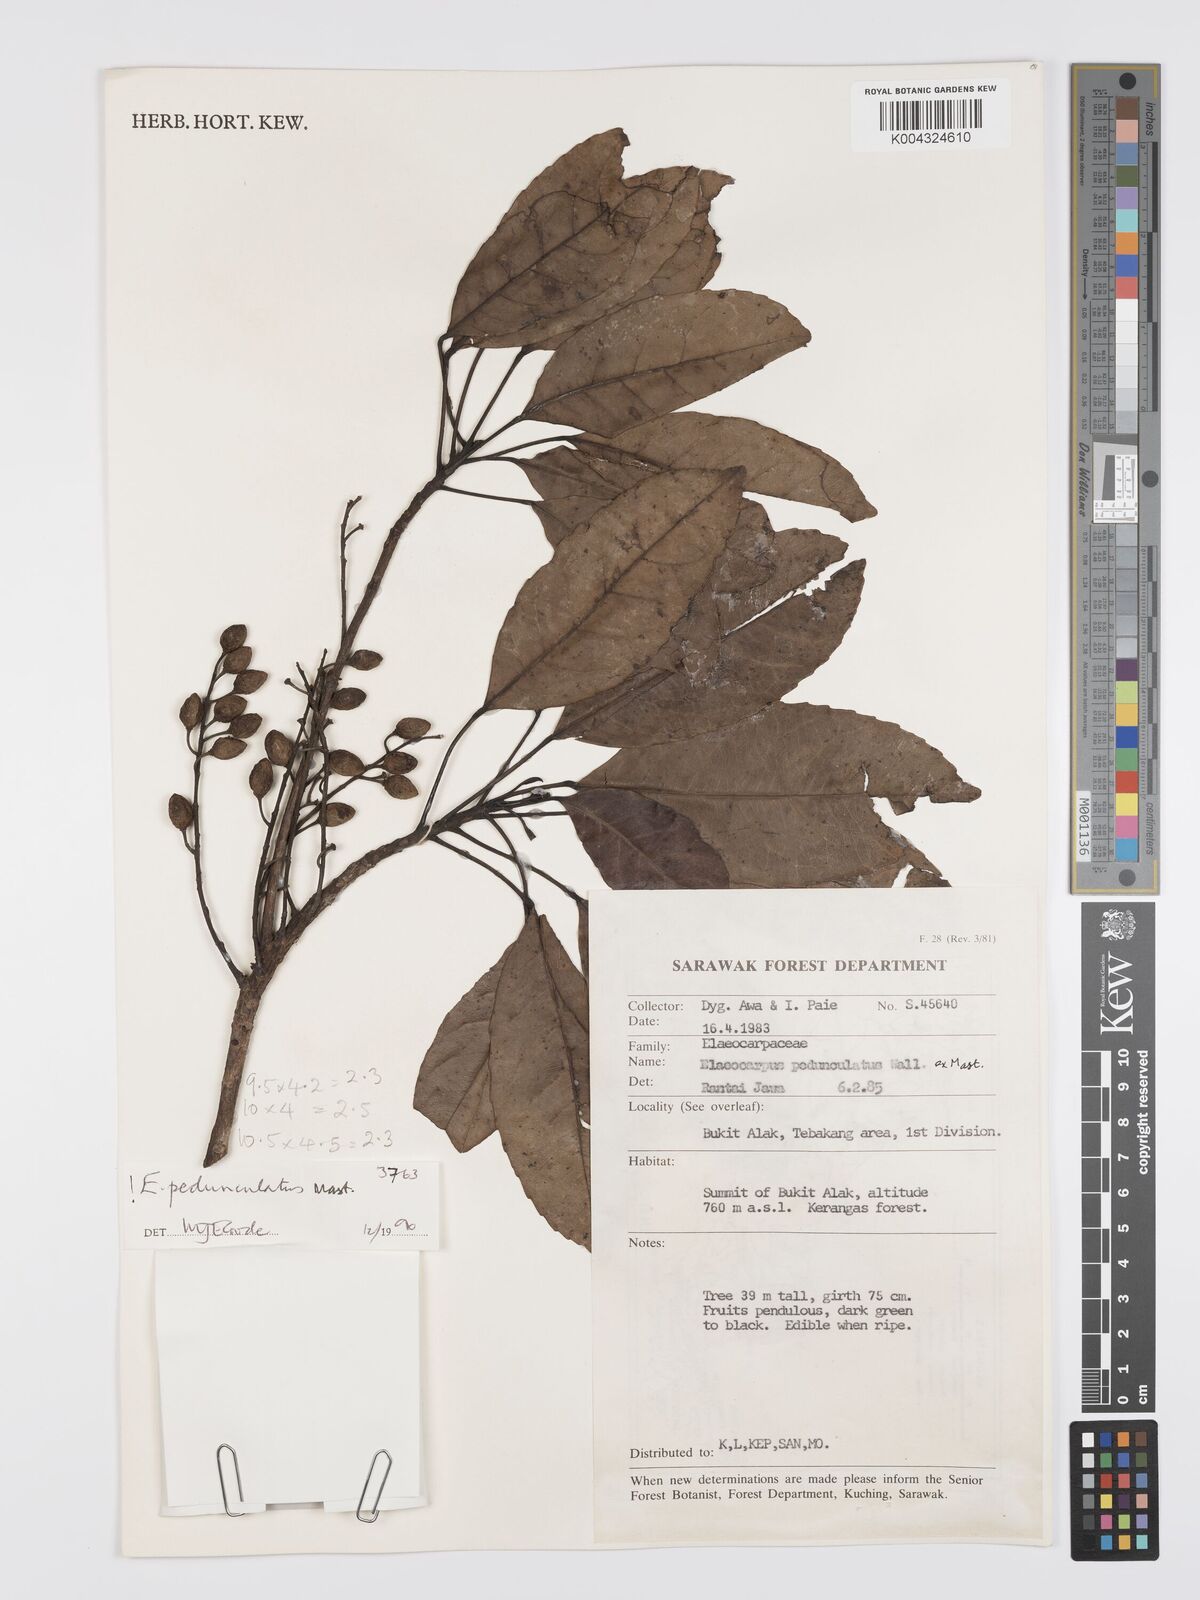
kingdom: Plantae
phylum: Tracheophyta
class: Magnoliopsida
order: Oxalidales
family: Elaeocarpaceae
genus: Elaeocarpus
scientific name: Elaeocarpus pedunculatus
